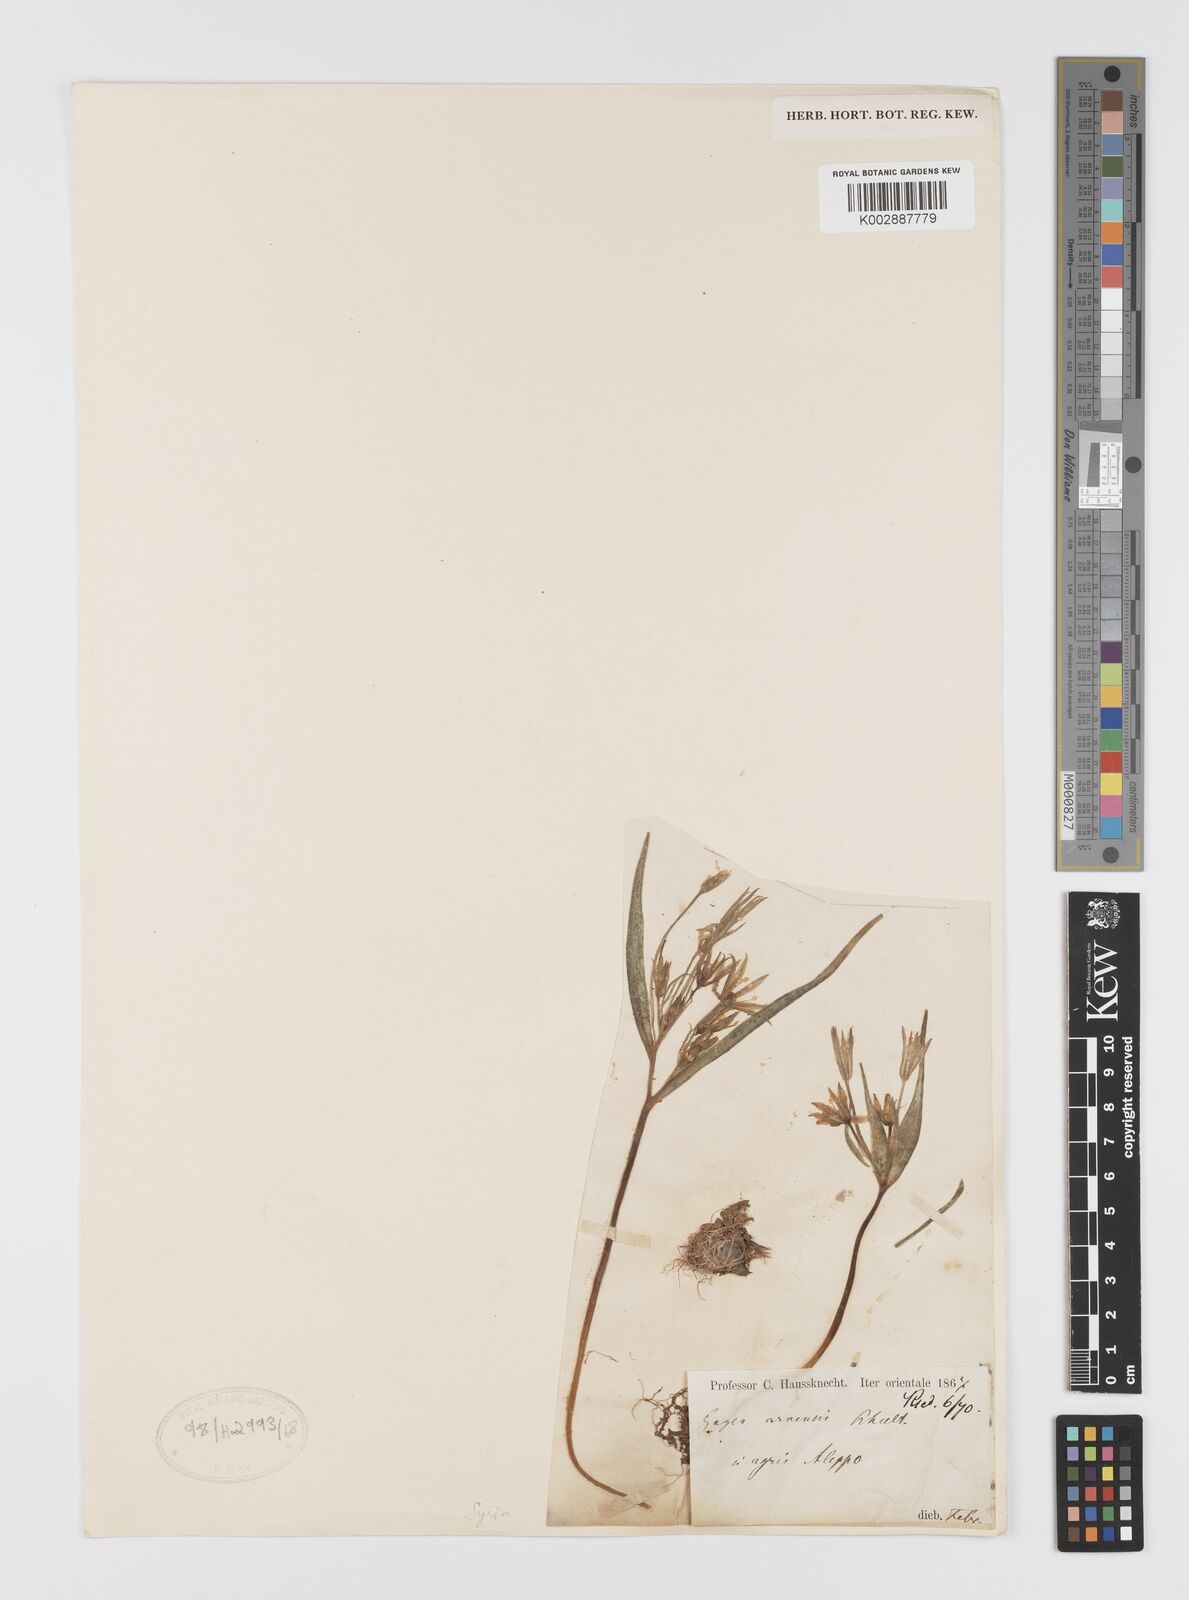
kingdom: Plantae
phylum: Tracheophyta
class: Liliopsida
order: Liliales
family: Liliaceae
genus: Gagea
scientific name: Gagea minima
